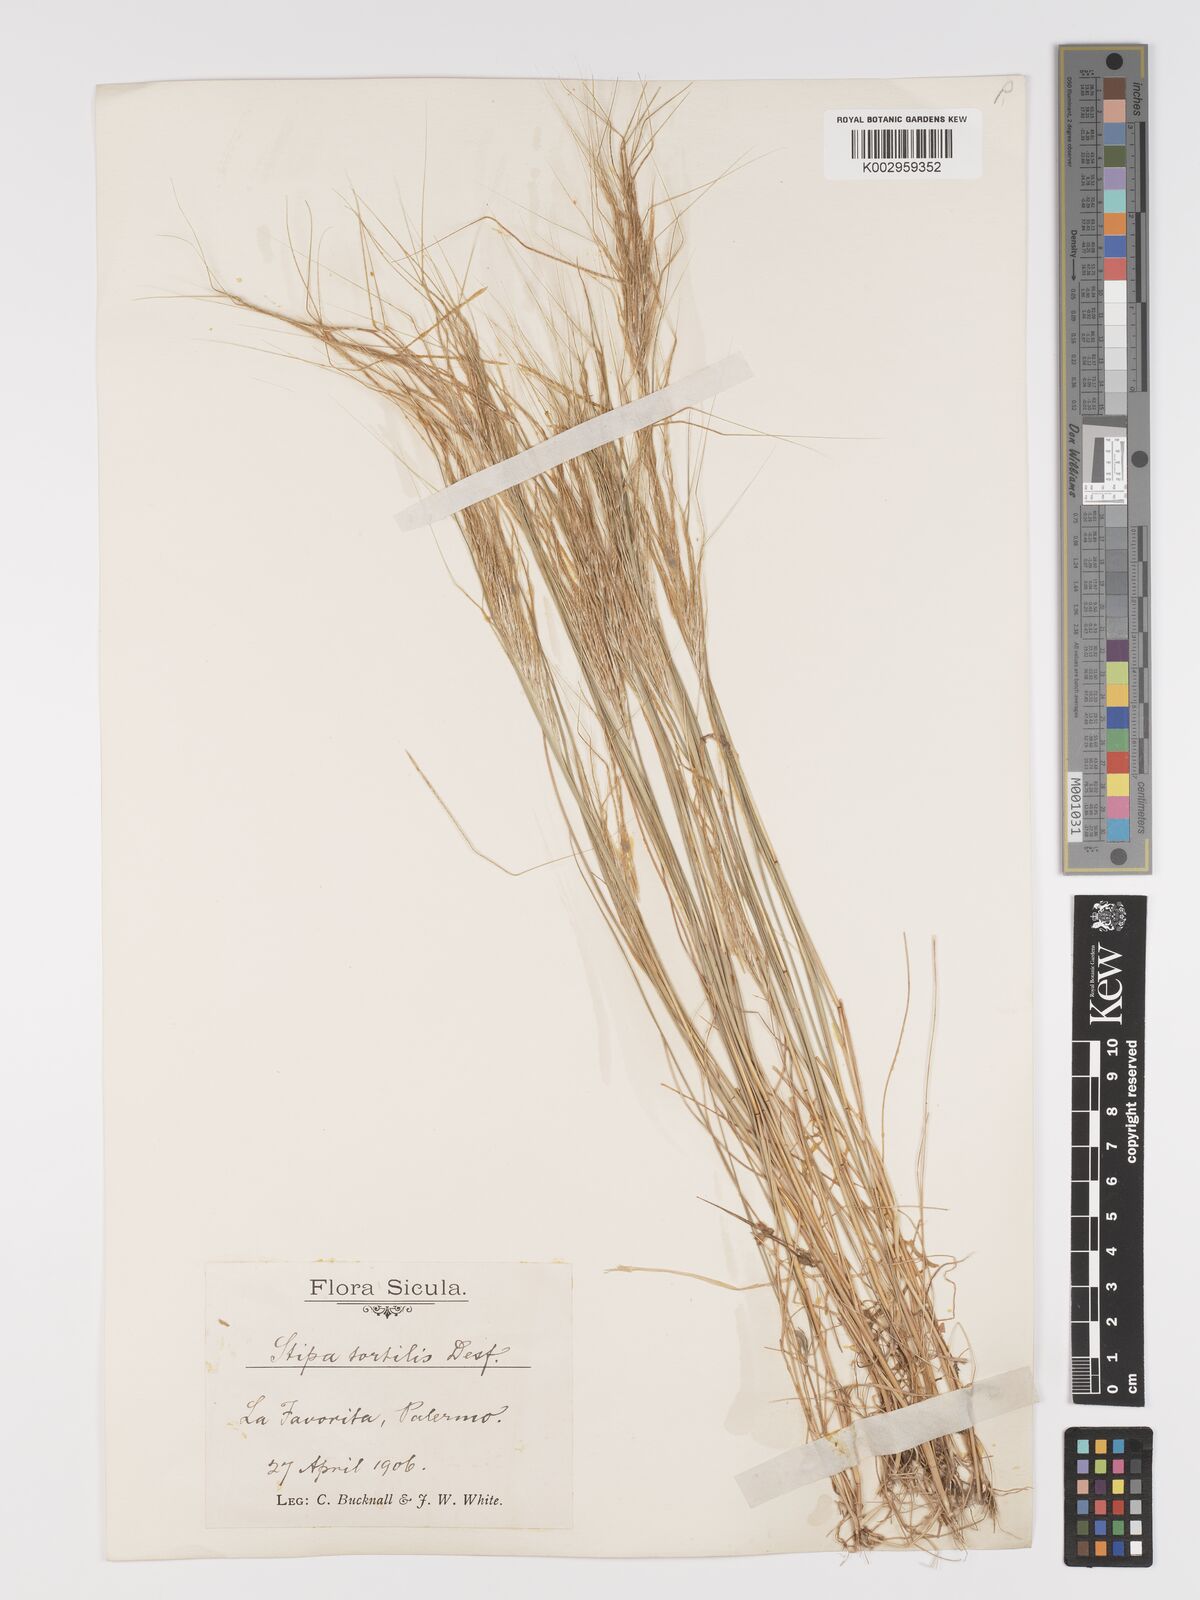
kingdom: Plantae
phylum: Tracheophyta
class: Liliopsida
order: Poales
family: Poaceae
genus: Stipellula
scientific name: Stipellula capensis
